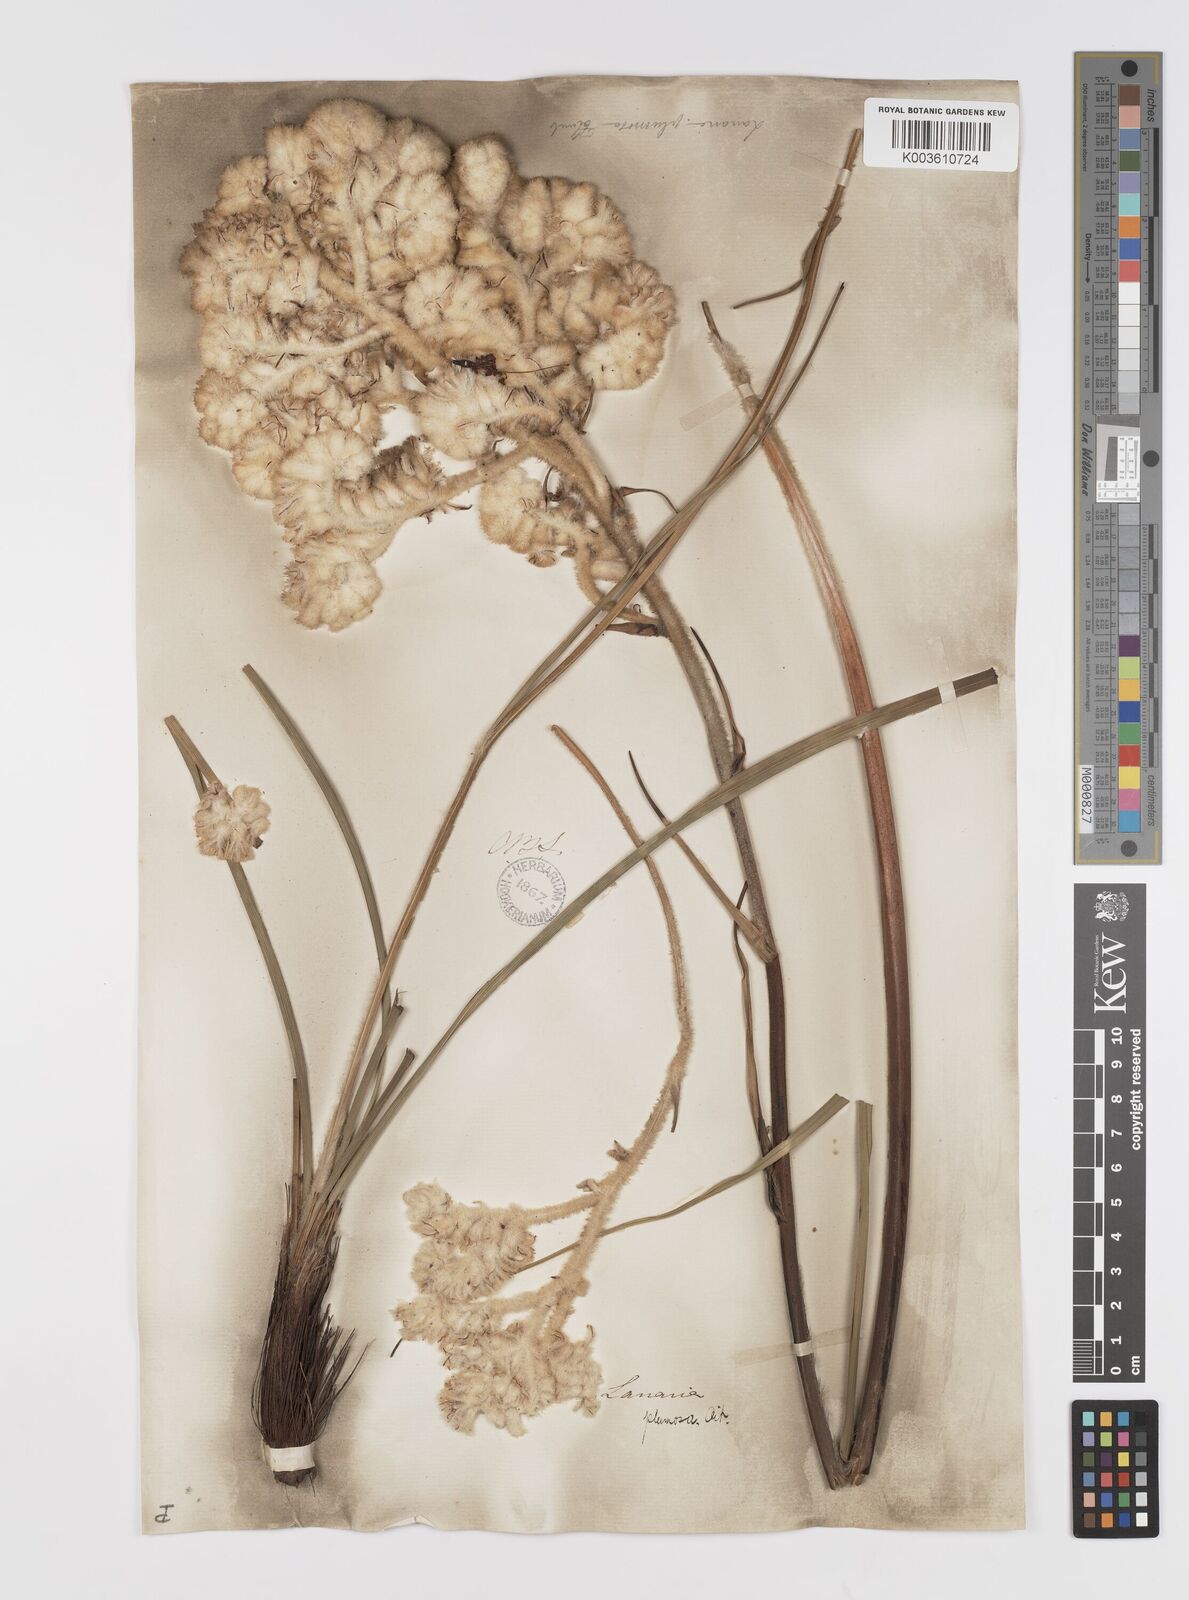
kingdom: Plantae
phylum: Tracheophyta
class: Liliopsida
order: Asparagales
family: Lanariaceae
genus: Lanaria
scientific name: Lanaria lanata
